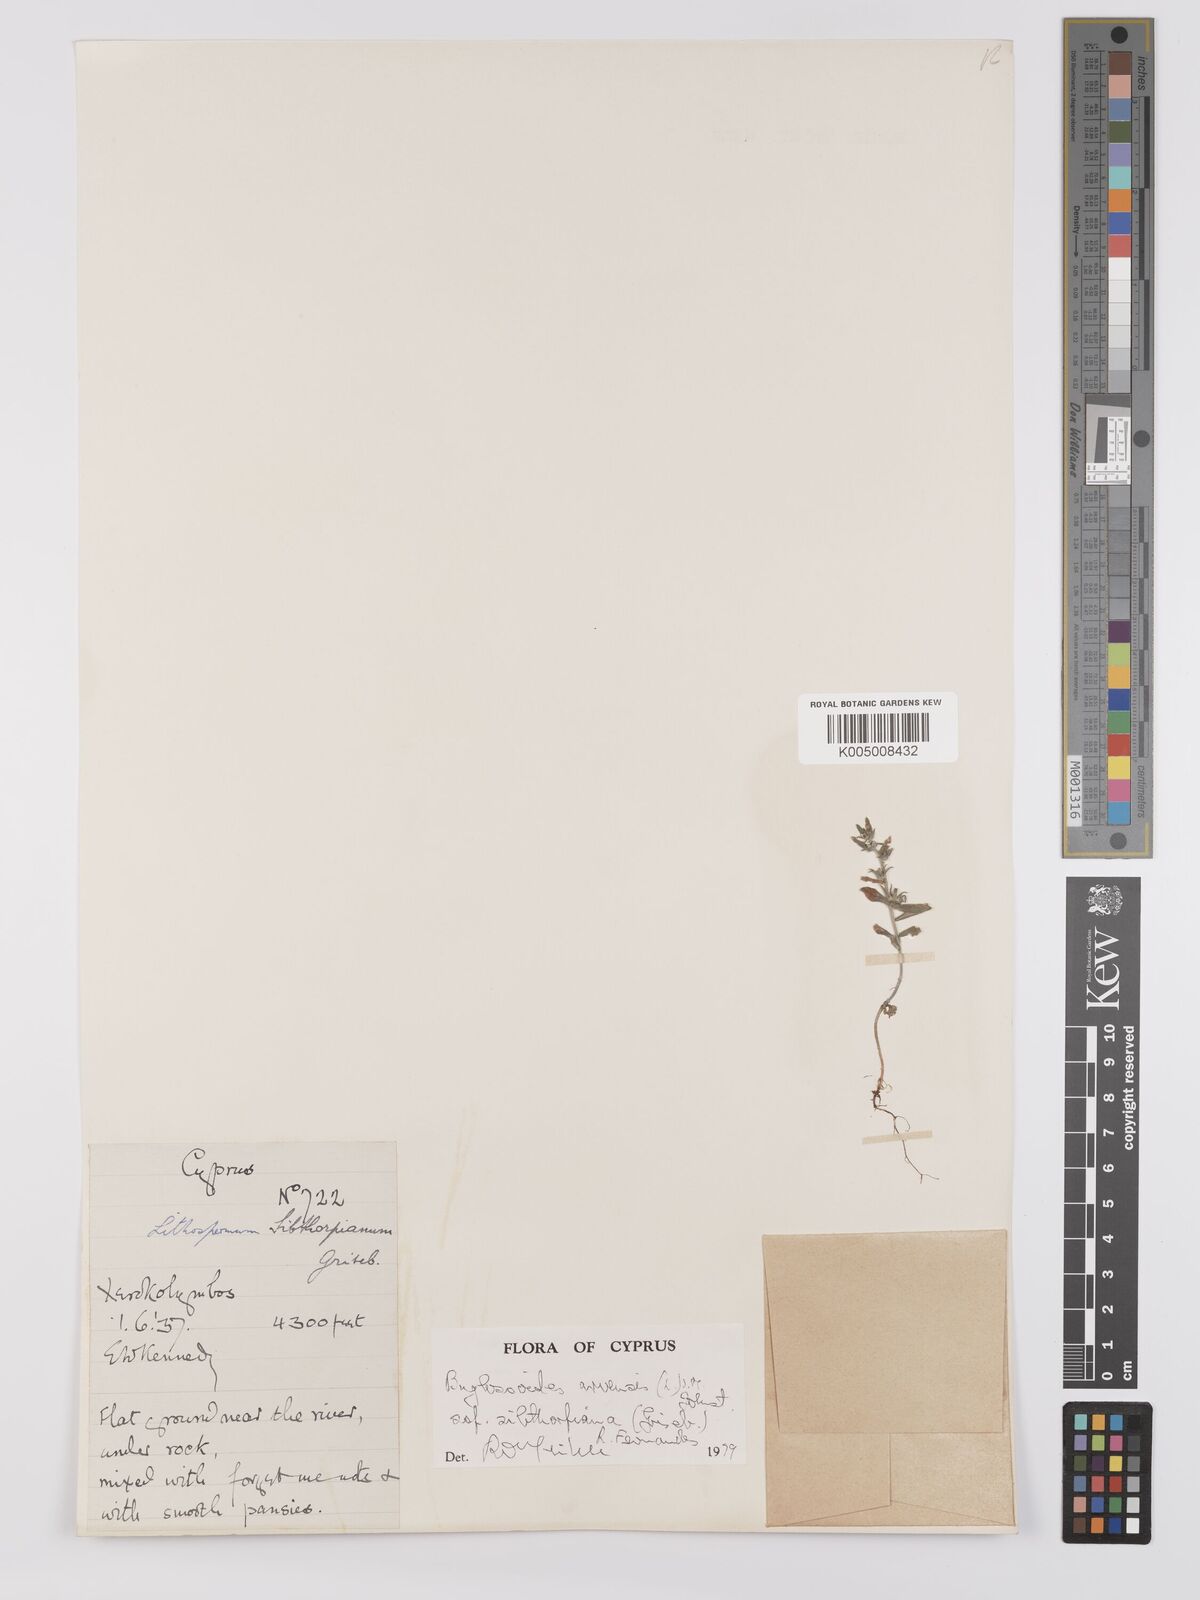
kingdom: Plantae
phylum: Tracheophyta
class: Magnoliopsida
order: Boraginales
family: Boraginaceae
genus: Buglossoides
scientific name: Buglossoides
